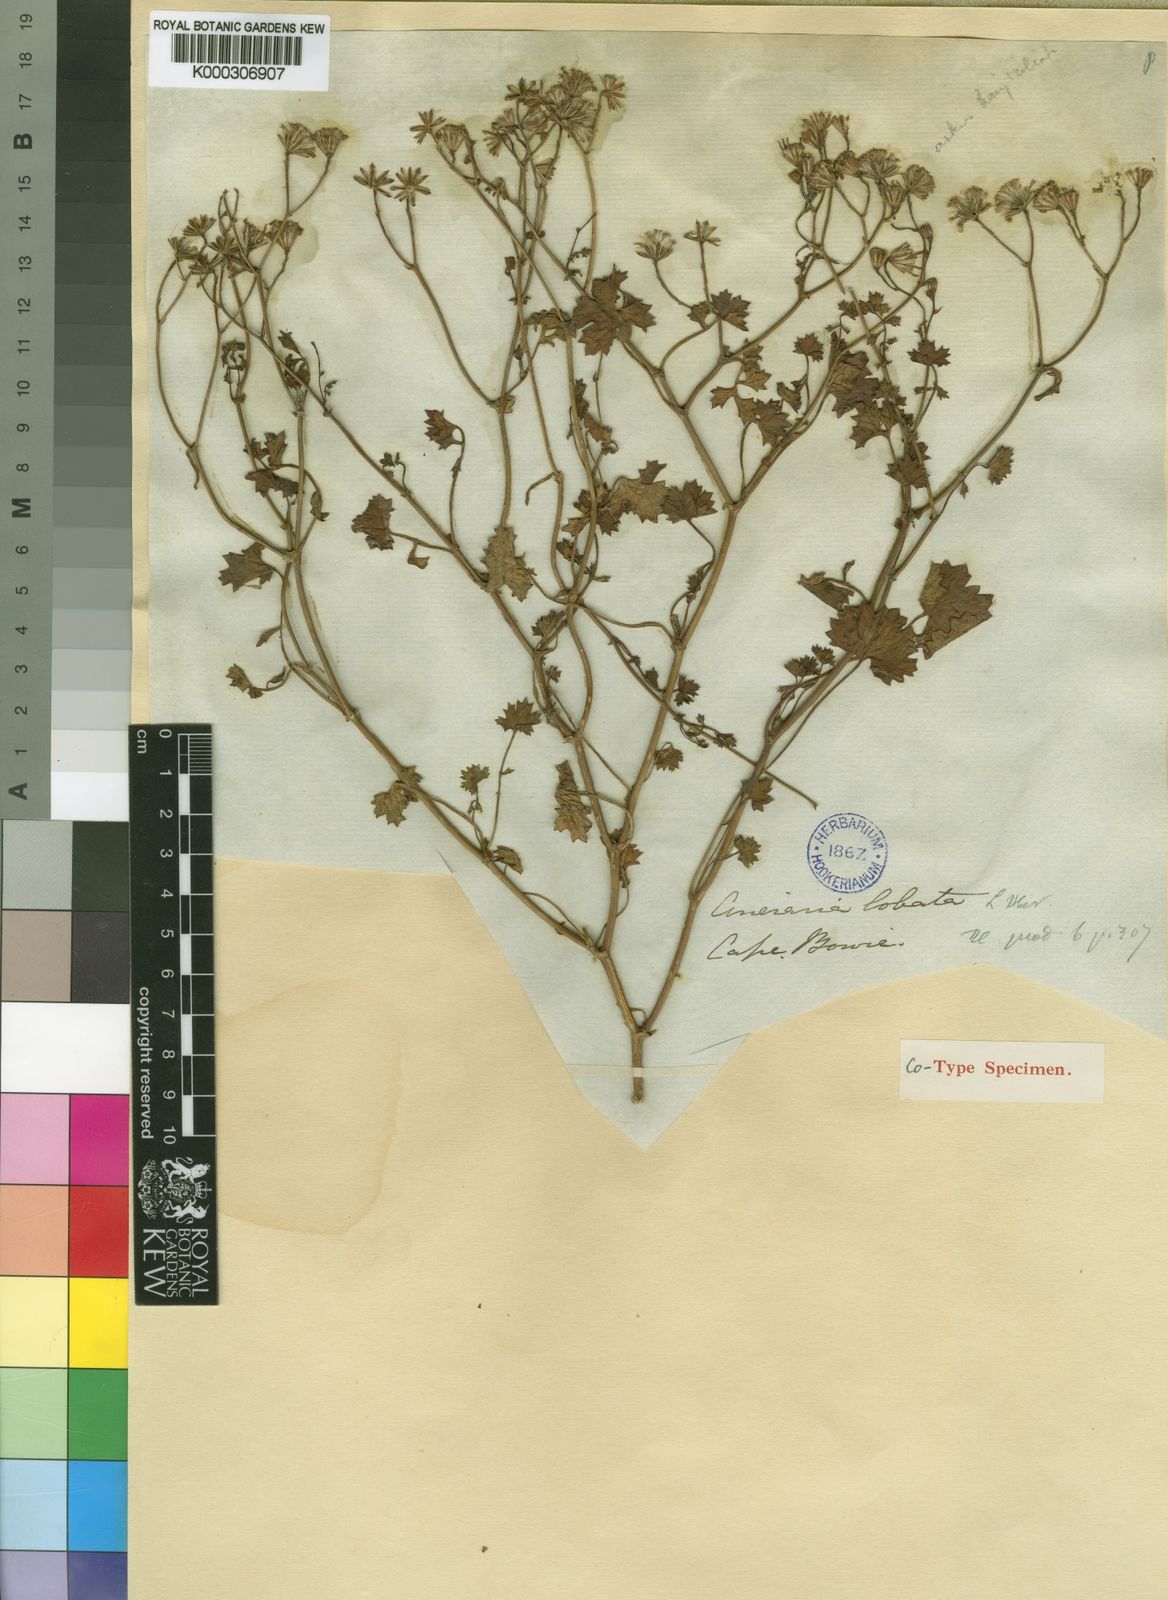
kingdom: Plantae
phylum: Tracheophyta
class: Magnoliopsida
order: Asterales
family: Asteraceae
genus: Cineraria
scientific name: Cineraria
